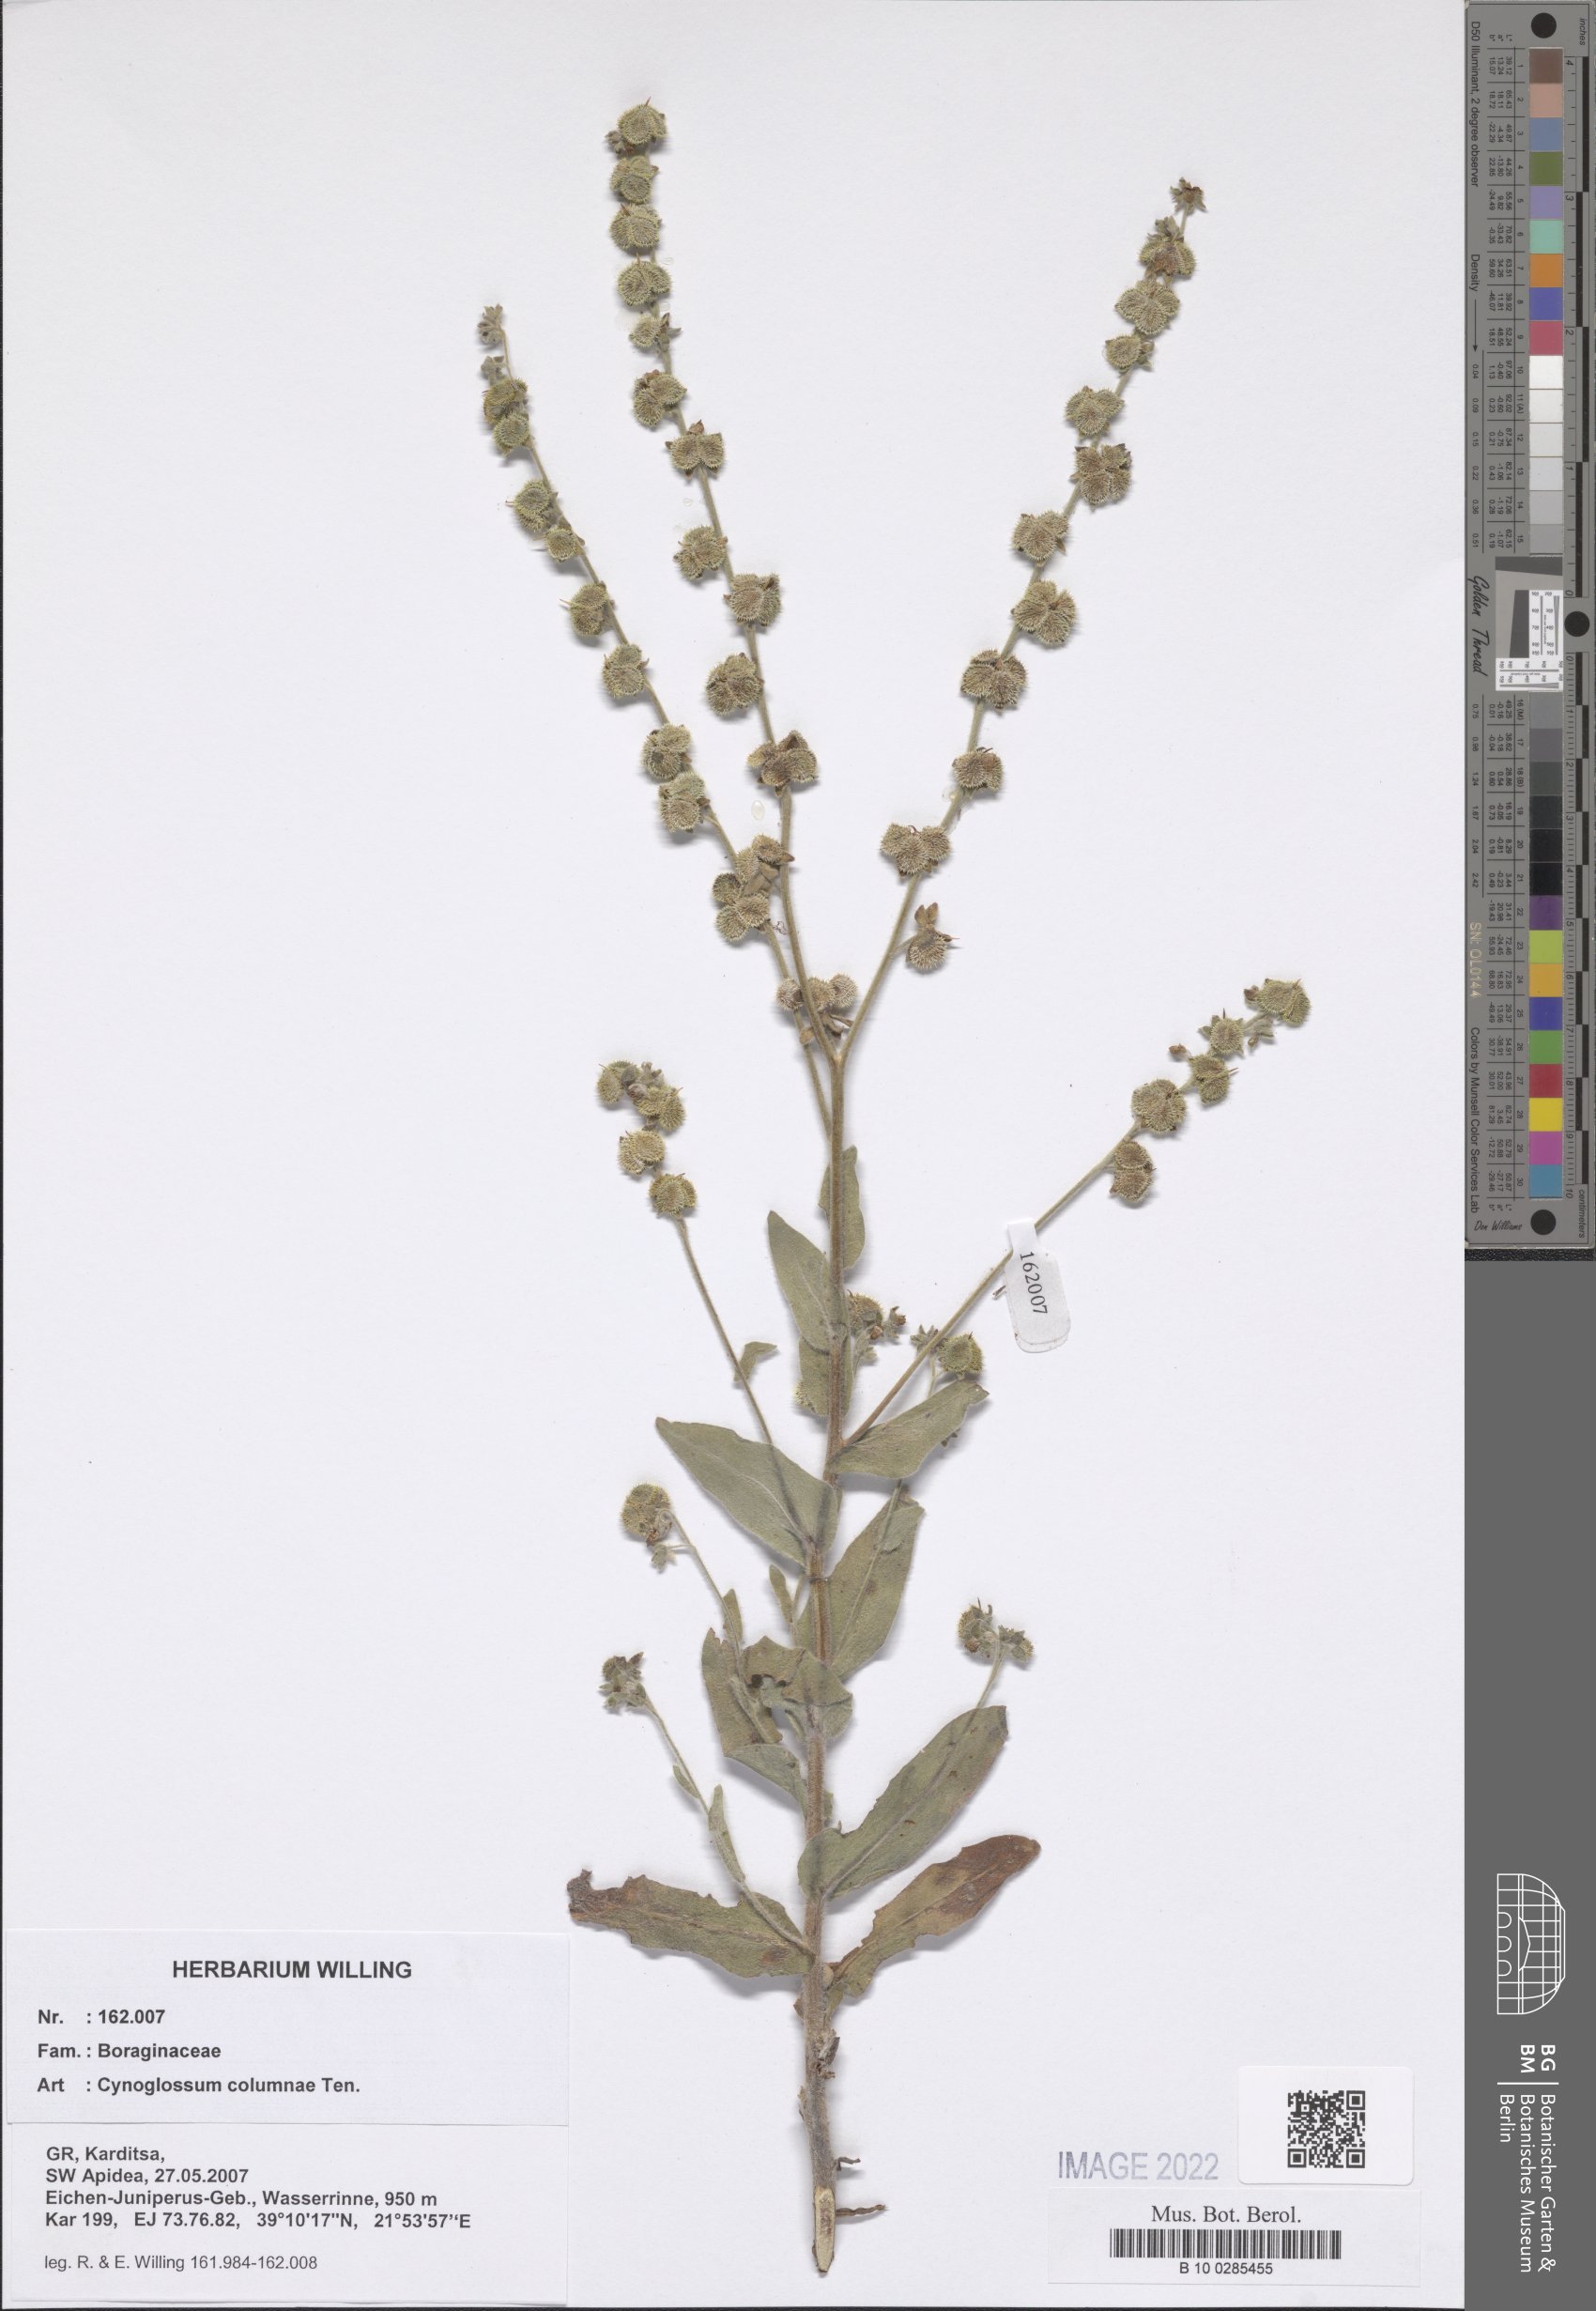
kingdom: Plantae
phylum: Tracheophyta
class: Magnoliopsida
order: Boraginales
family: Boraginaceae
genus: Rindera
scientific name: Rindera columnae
